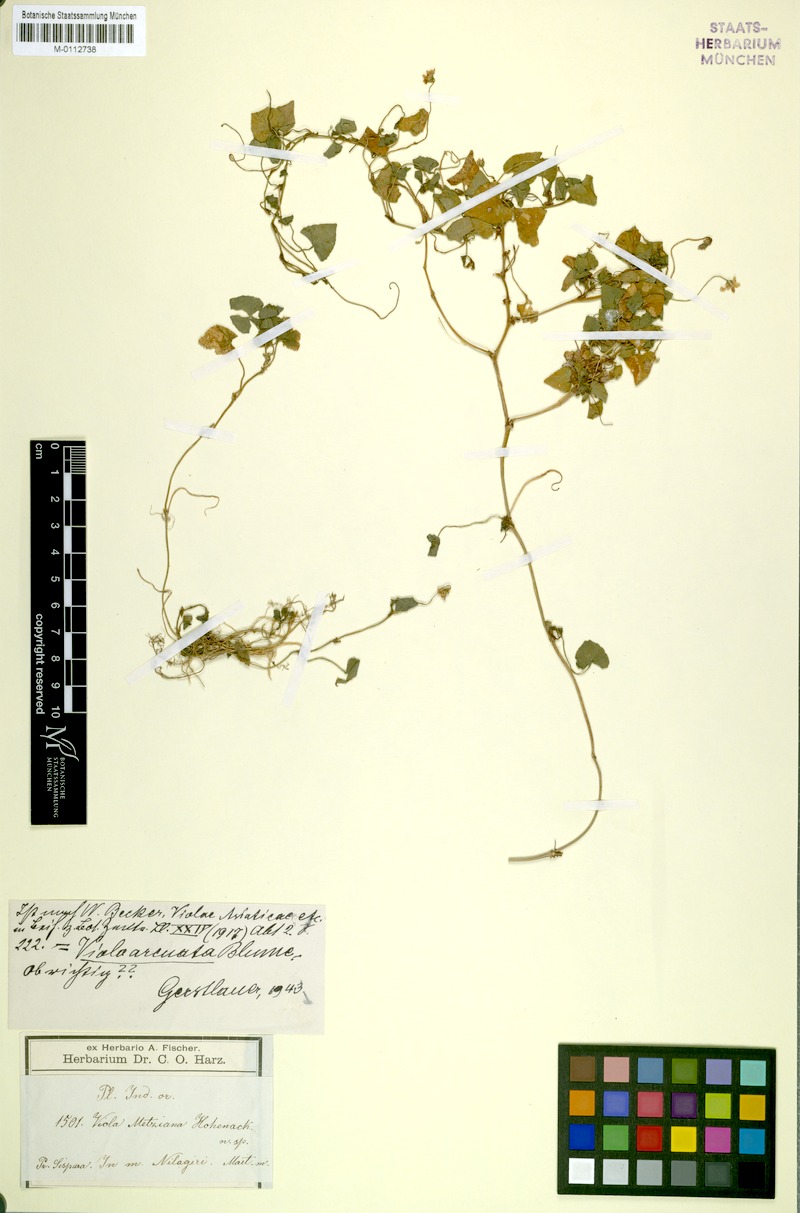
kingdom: Plantae
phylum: Tracheophyta
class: Magnoliopsida
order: Malpighiales
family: Violaceae
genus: Viola
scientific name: Viola hamiltoniana
